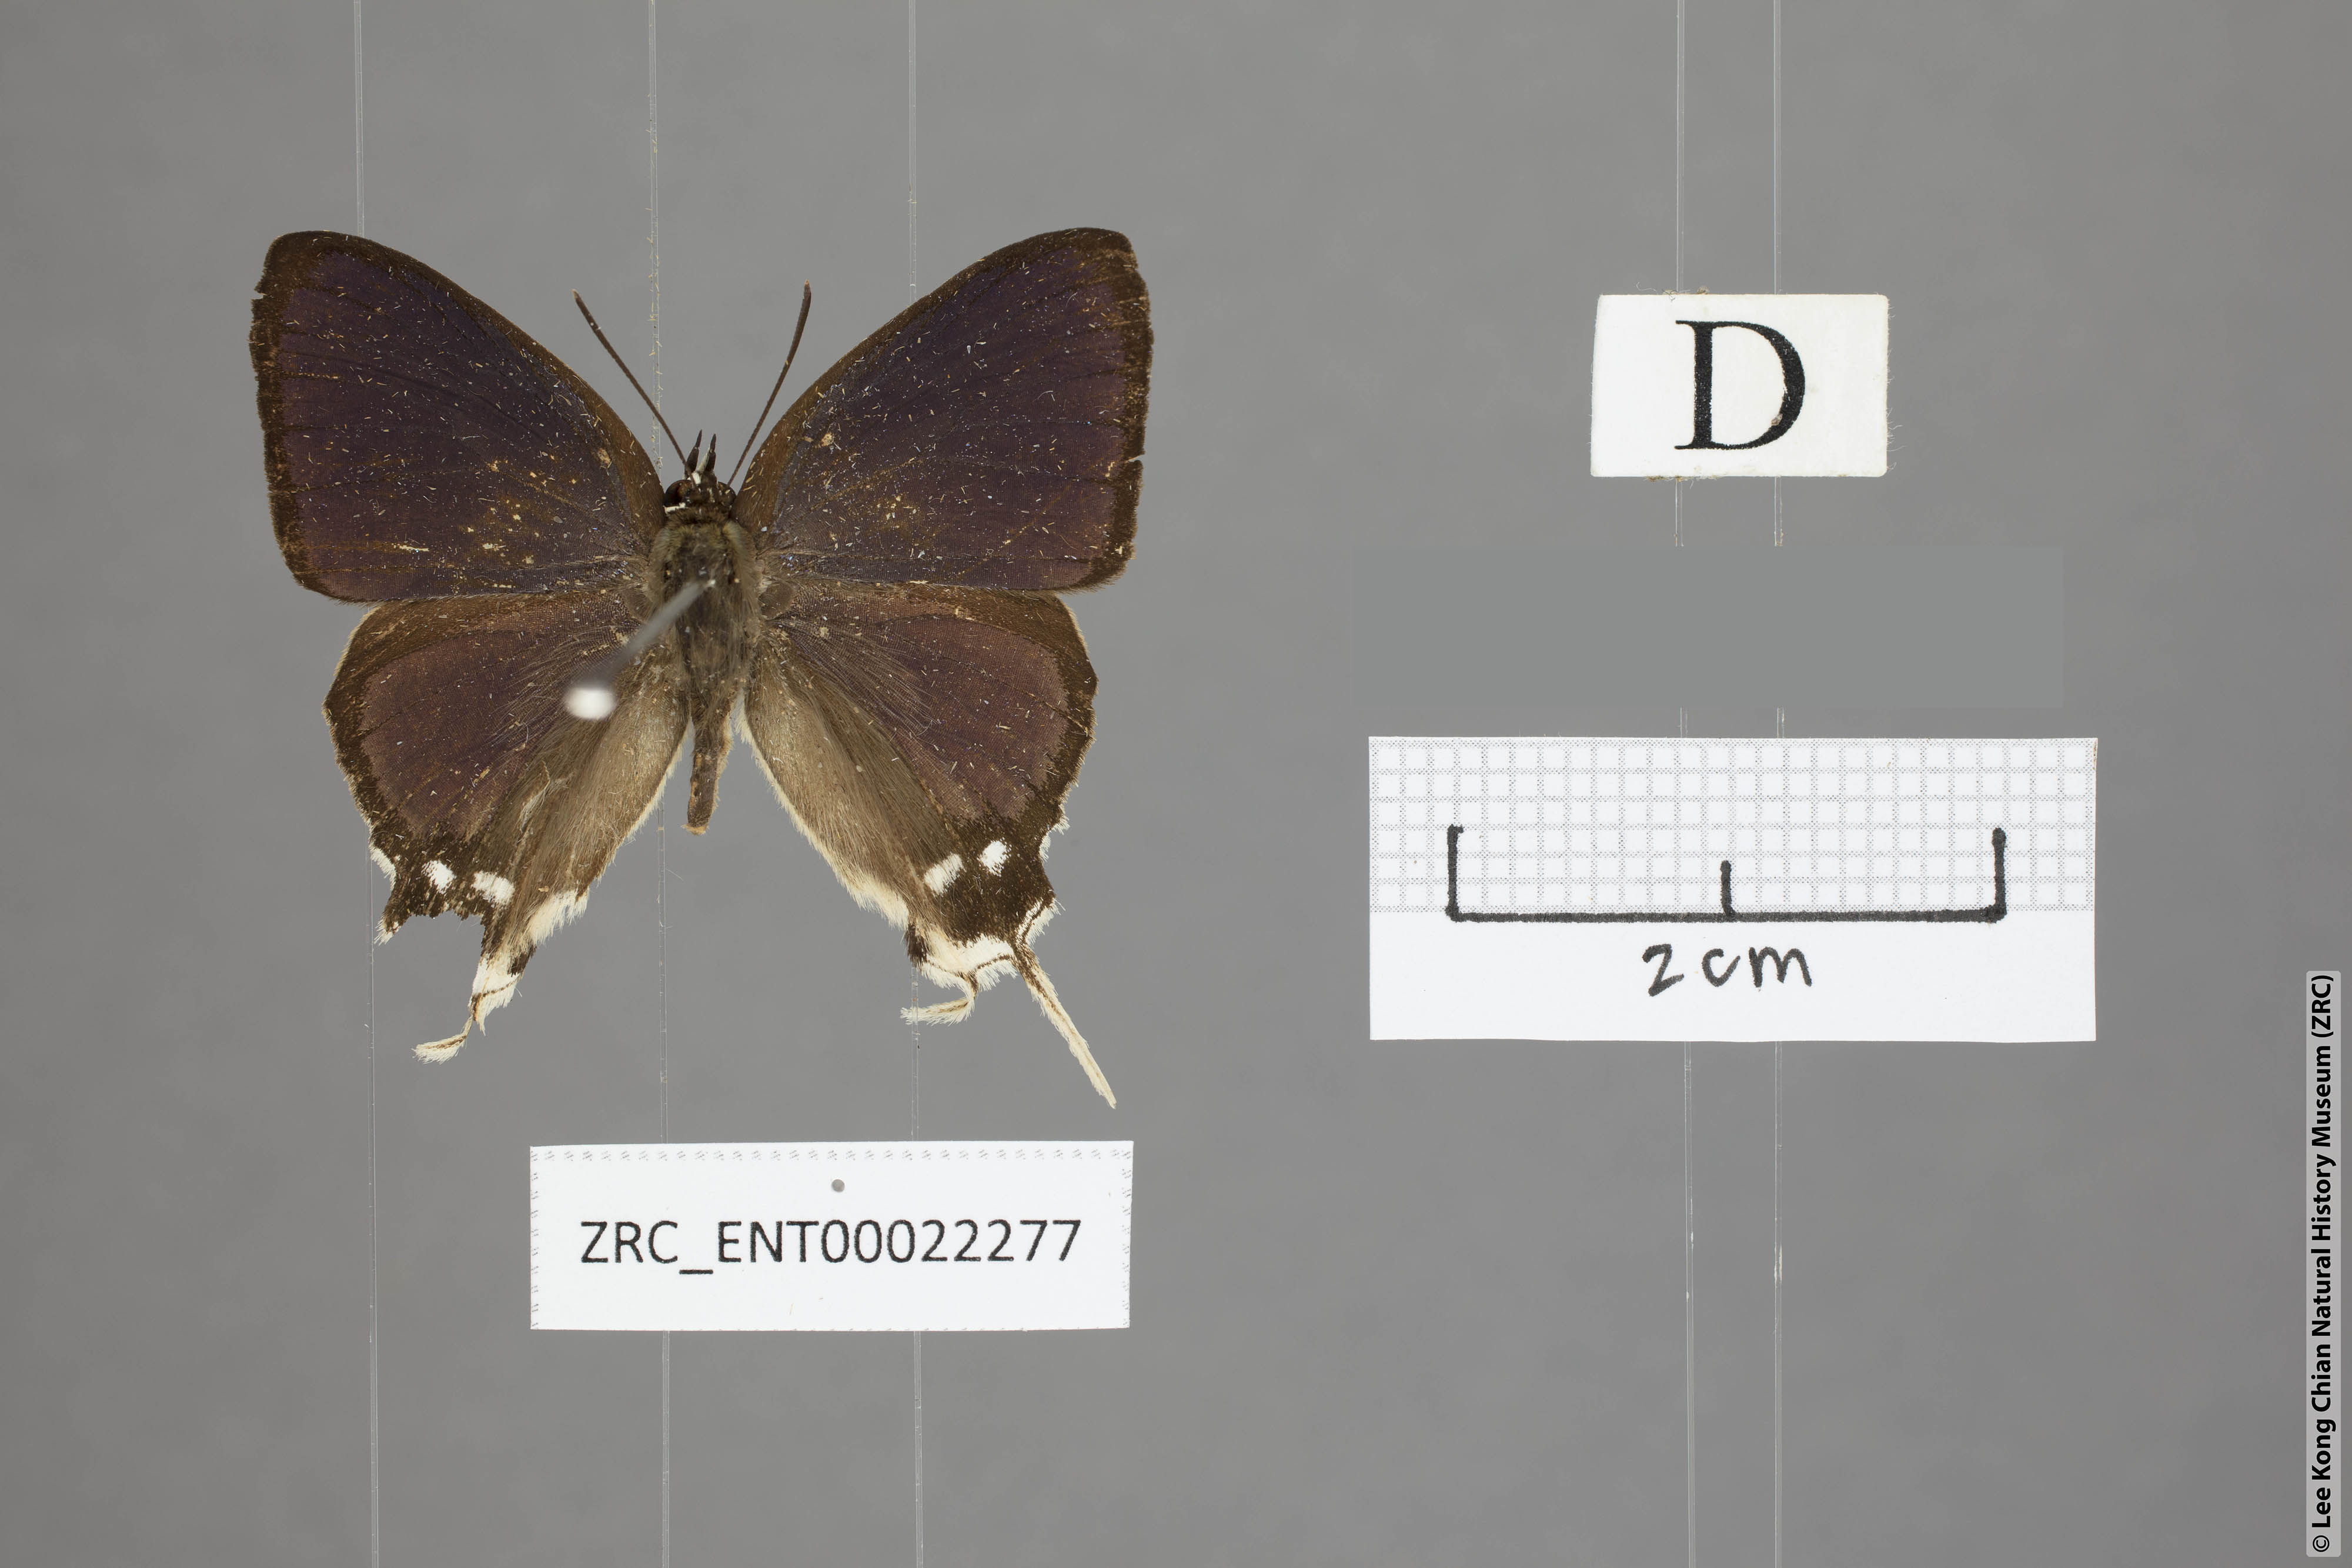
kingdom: Animalia
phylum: Arthropoda
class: Insecta
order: Lepidoptera
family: Lycaenidae
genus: Ticherra
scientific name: Ticherra acte
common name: Blue imperial
